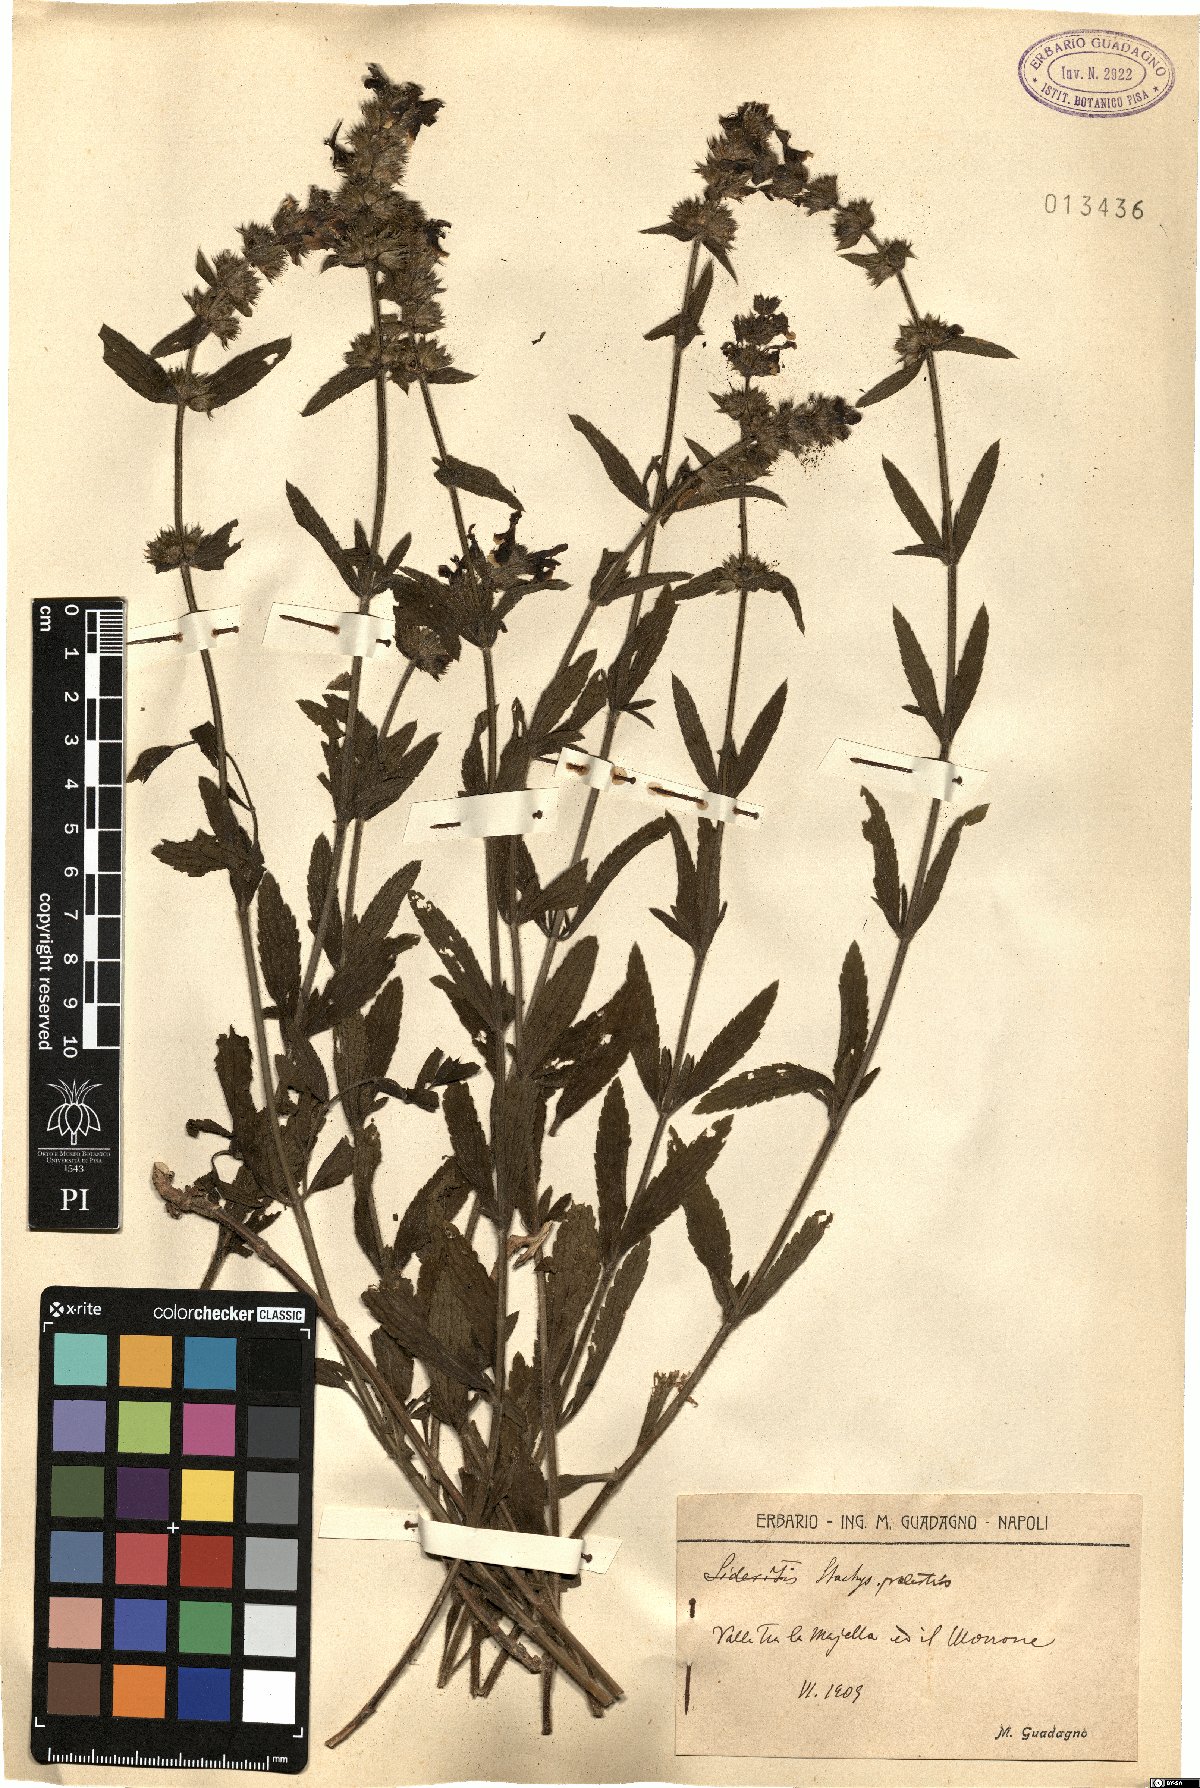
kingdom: Plantae
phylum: Tracheophyta
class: Magnoliopsida
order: Lamiales
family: Lamiaceae
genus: Stachys
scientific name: Stachys palustris
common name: Marsh woundwort
